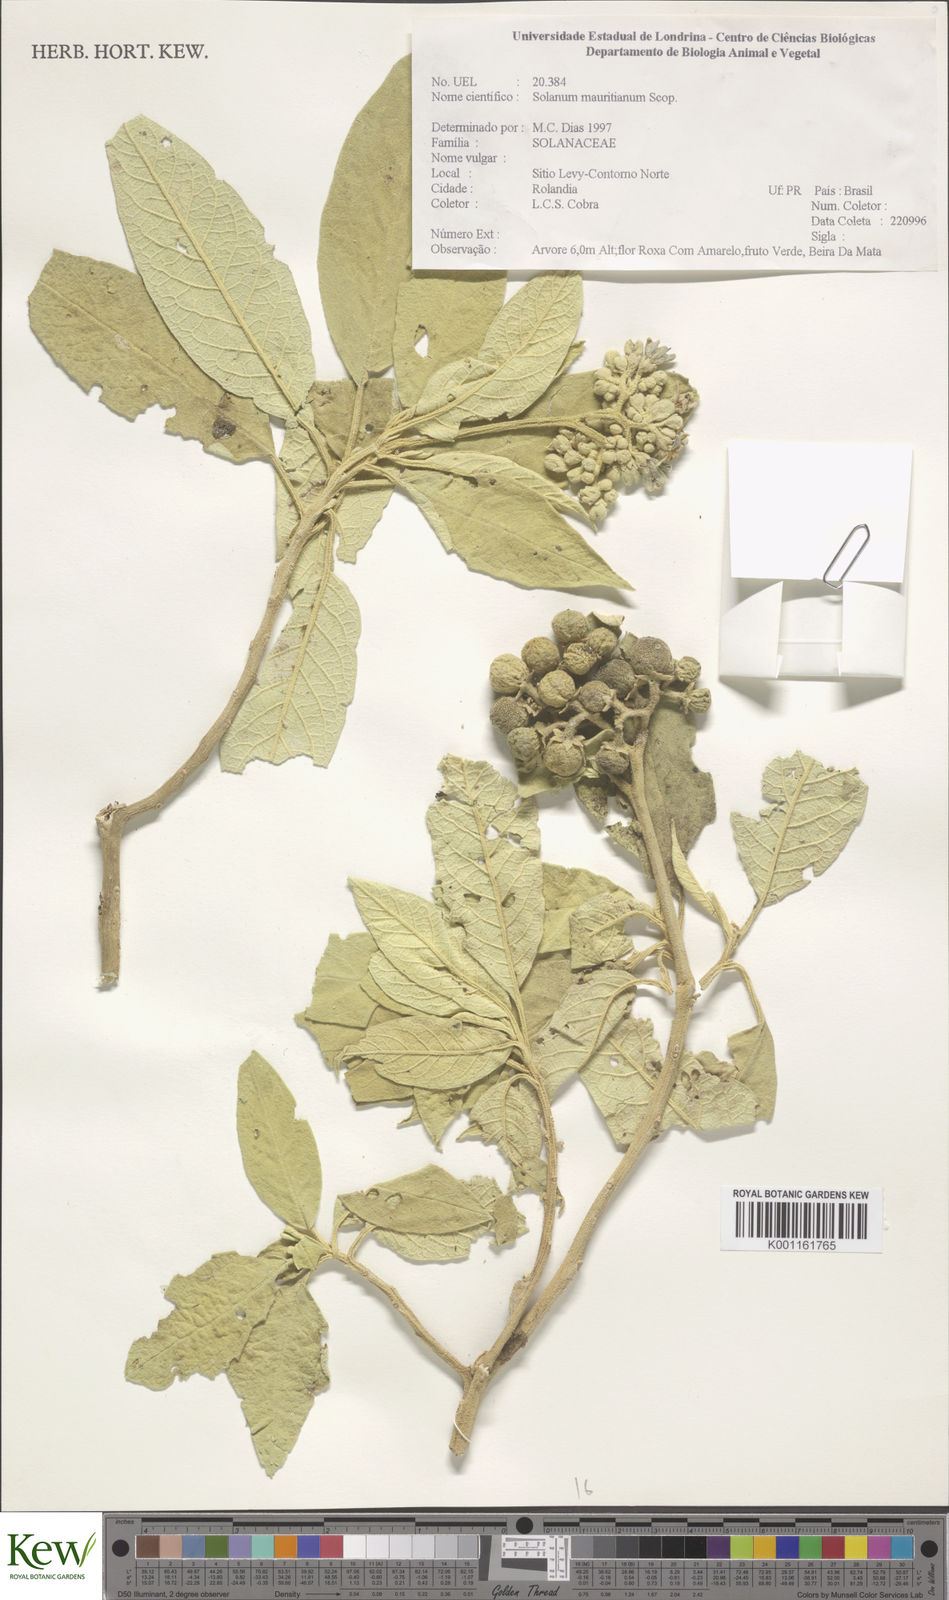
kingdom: Plantae
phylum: Tracheophyta
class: Magnoliopsida
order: Solanales
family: Solanaceae
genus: Solanum
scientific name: Solanum mauritianum
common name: Earleaf nightshade
